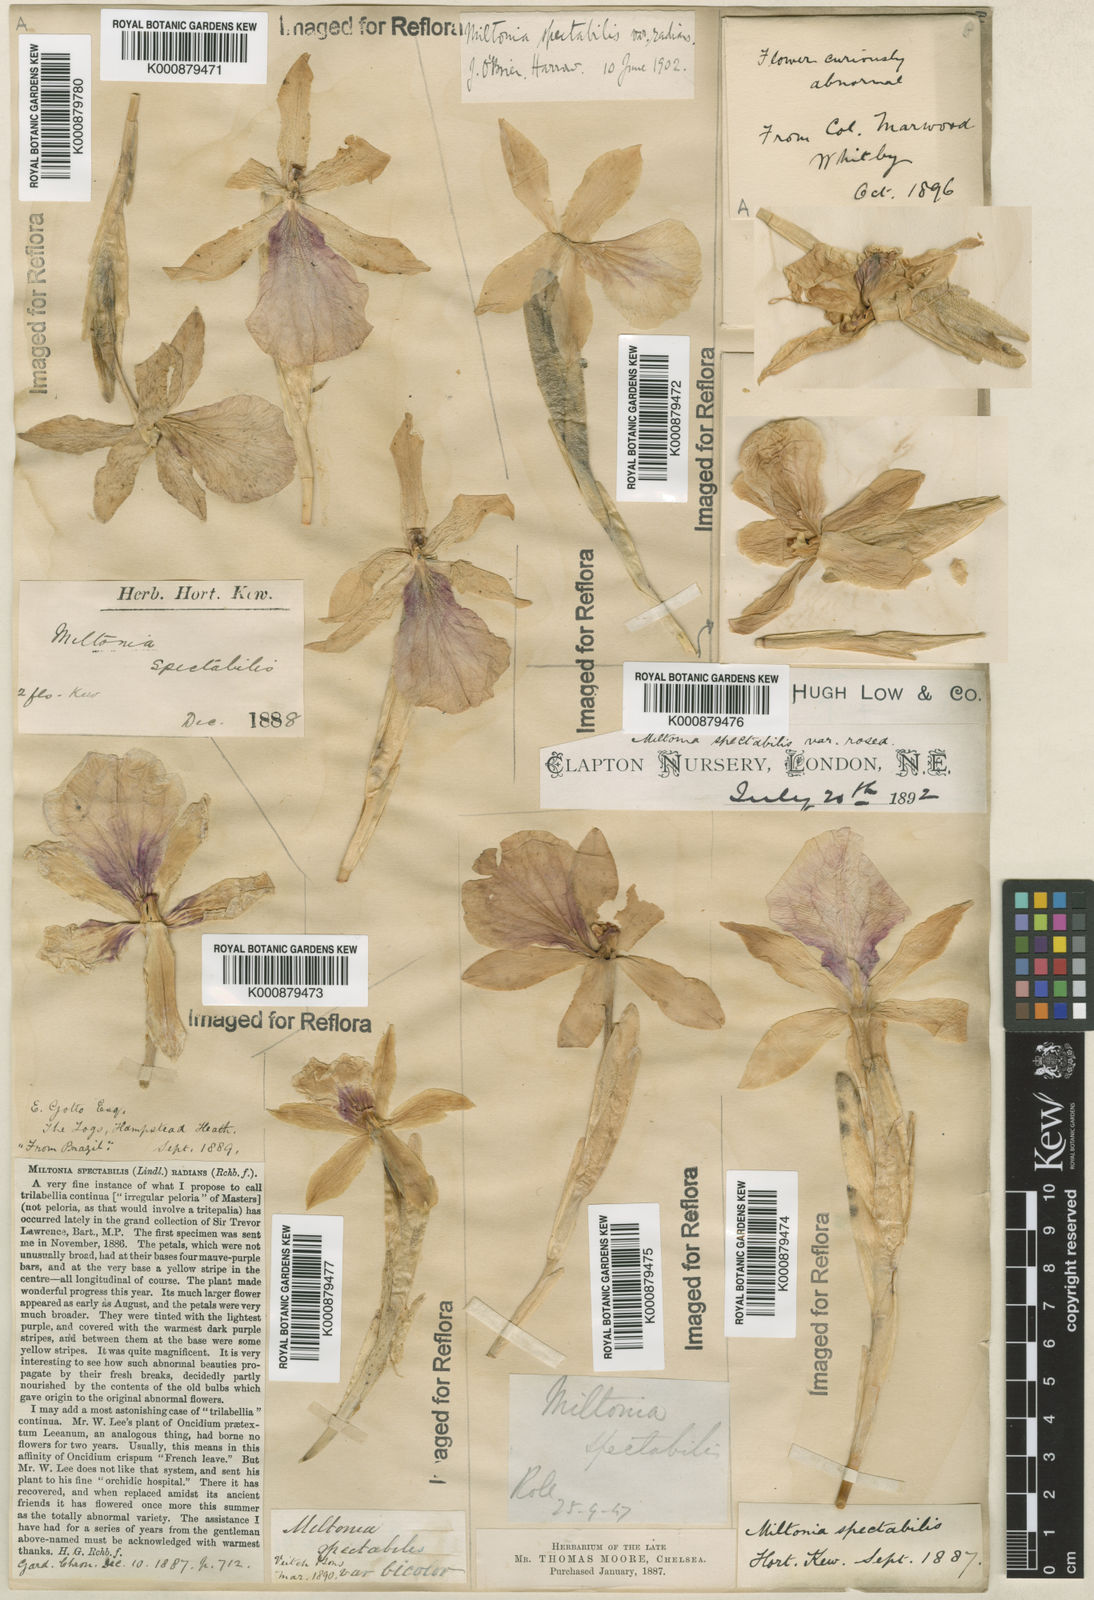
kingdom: Plantae
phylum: Tracheophyta
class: Liliopsida
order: Asparagales
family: Orchidaceae
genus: Miltonia
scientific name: Miltonia
